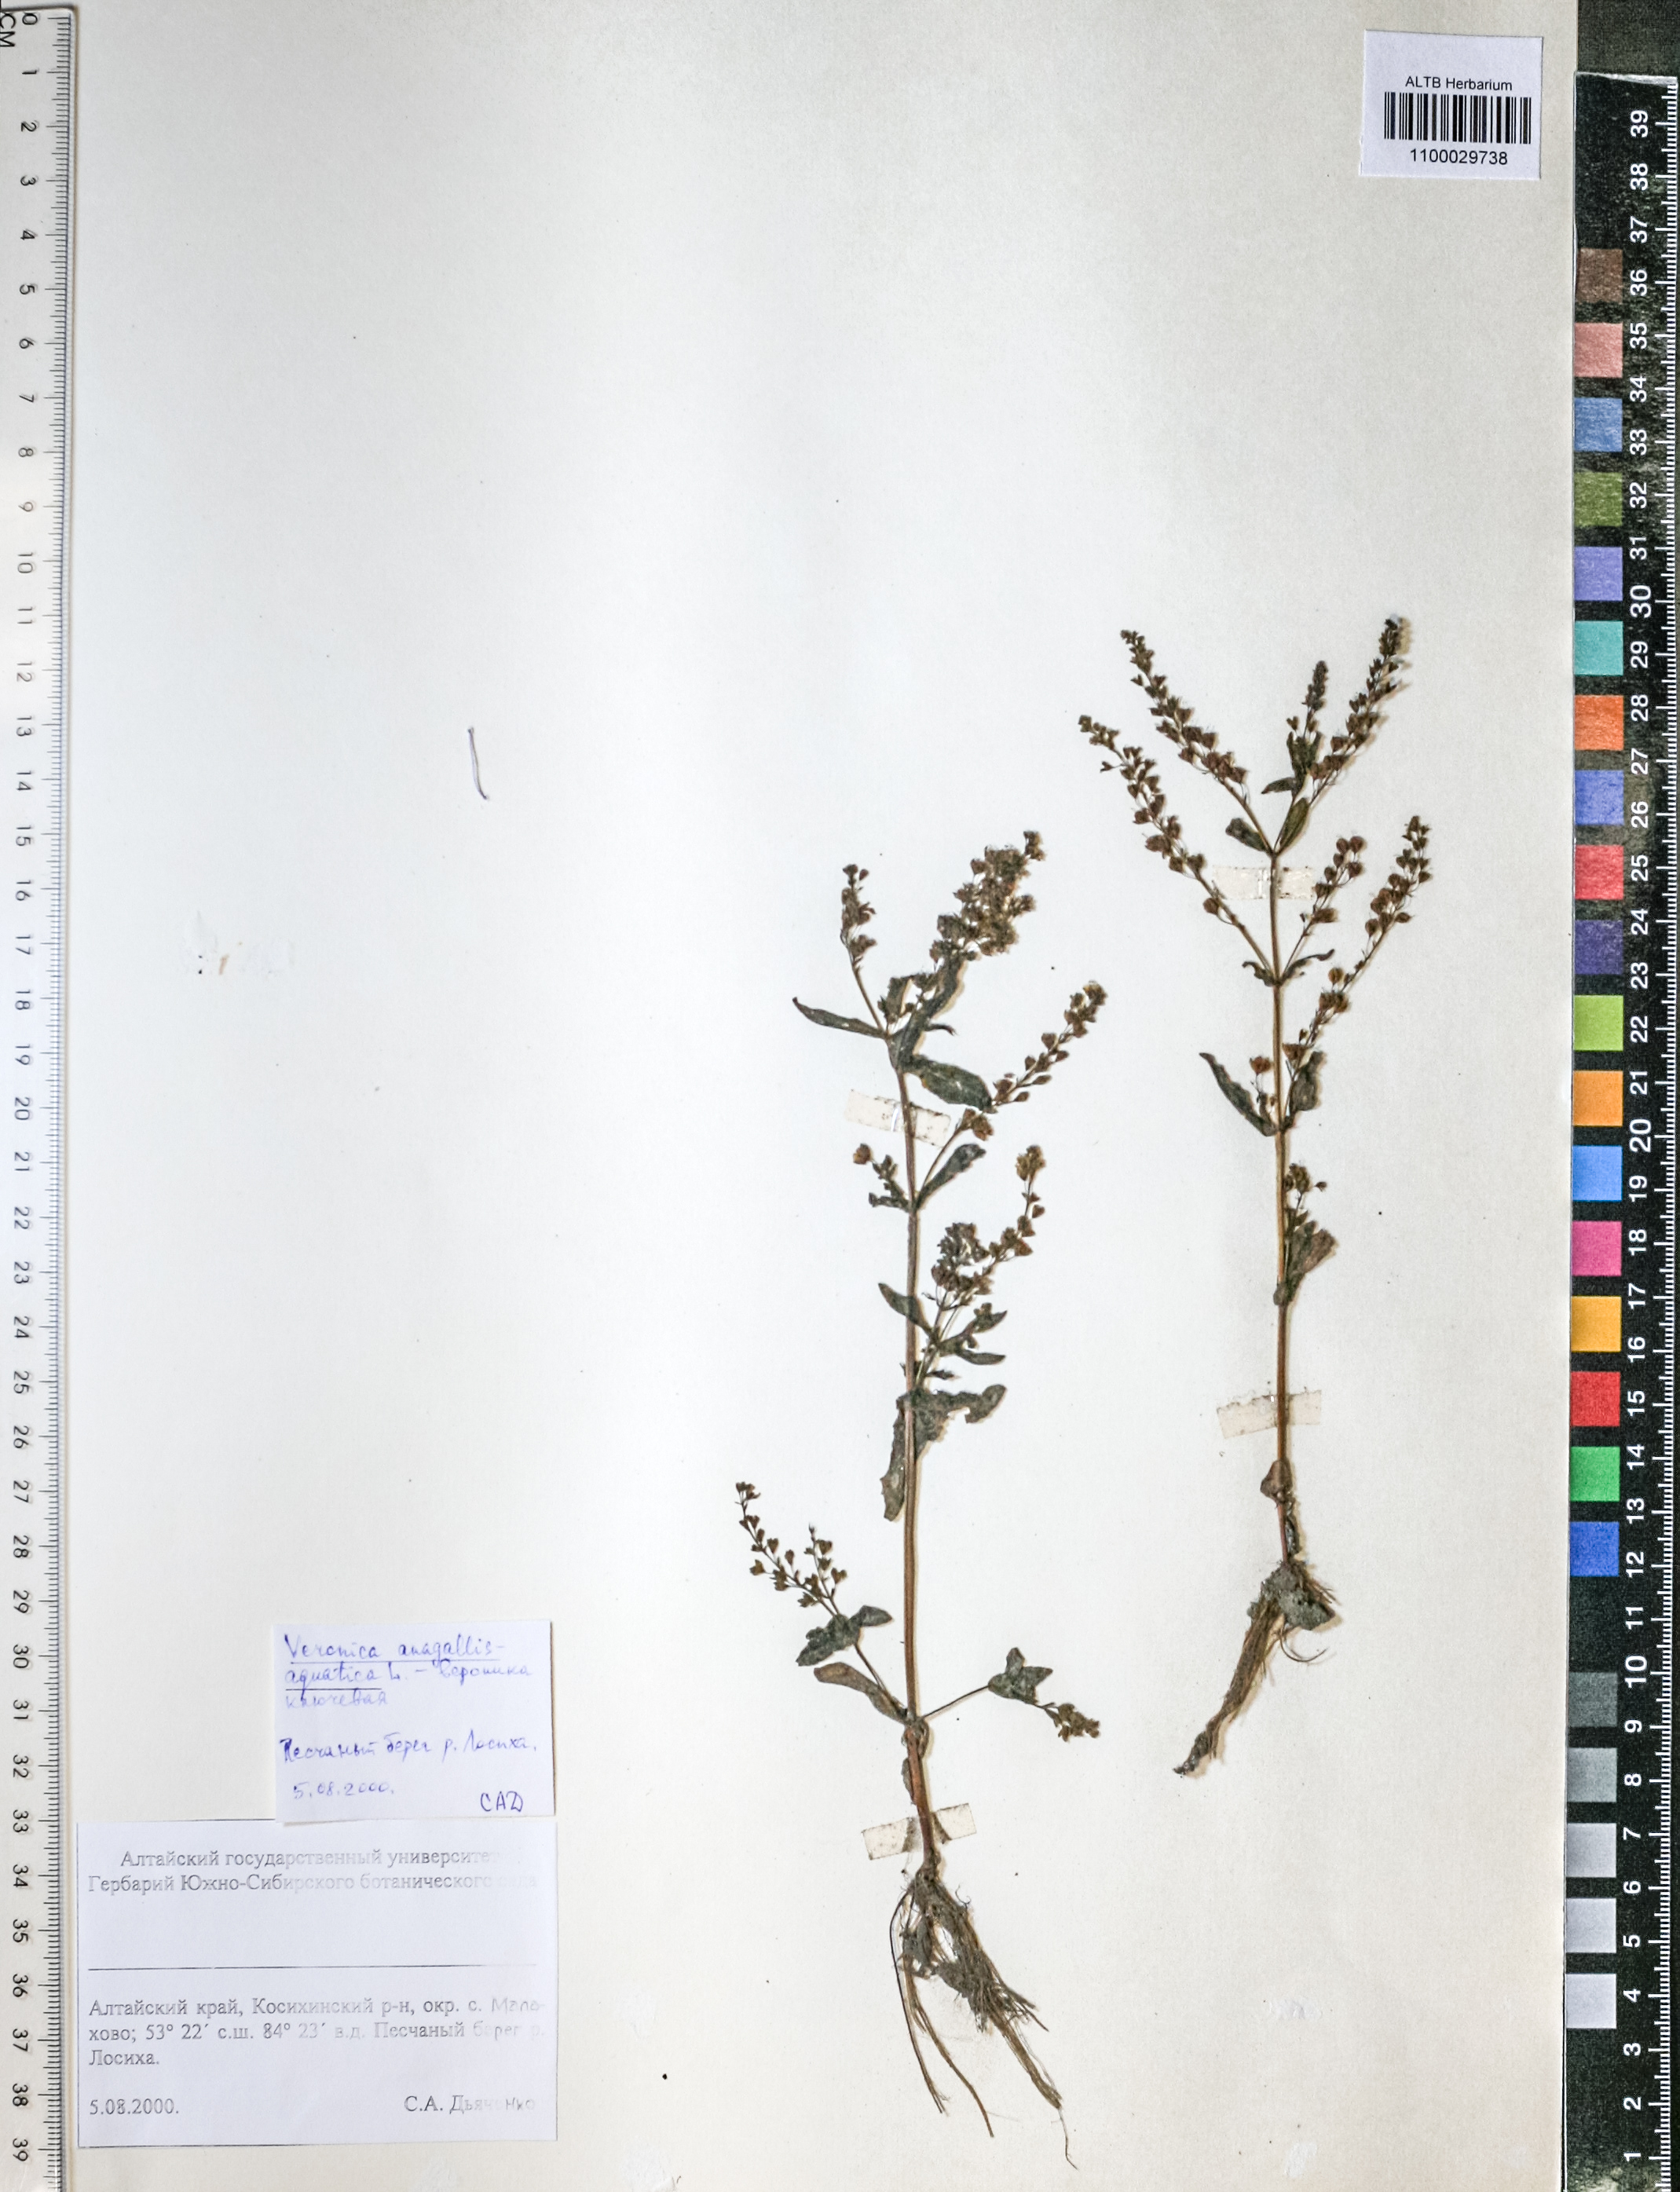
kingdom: Plantae
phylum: Tracheophyta
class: Magnoliopsida
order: Lamiales
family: Plantaginaceae
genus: Veronica
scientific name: Veronica anagallis-aquatica
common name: Water speedwell
